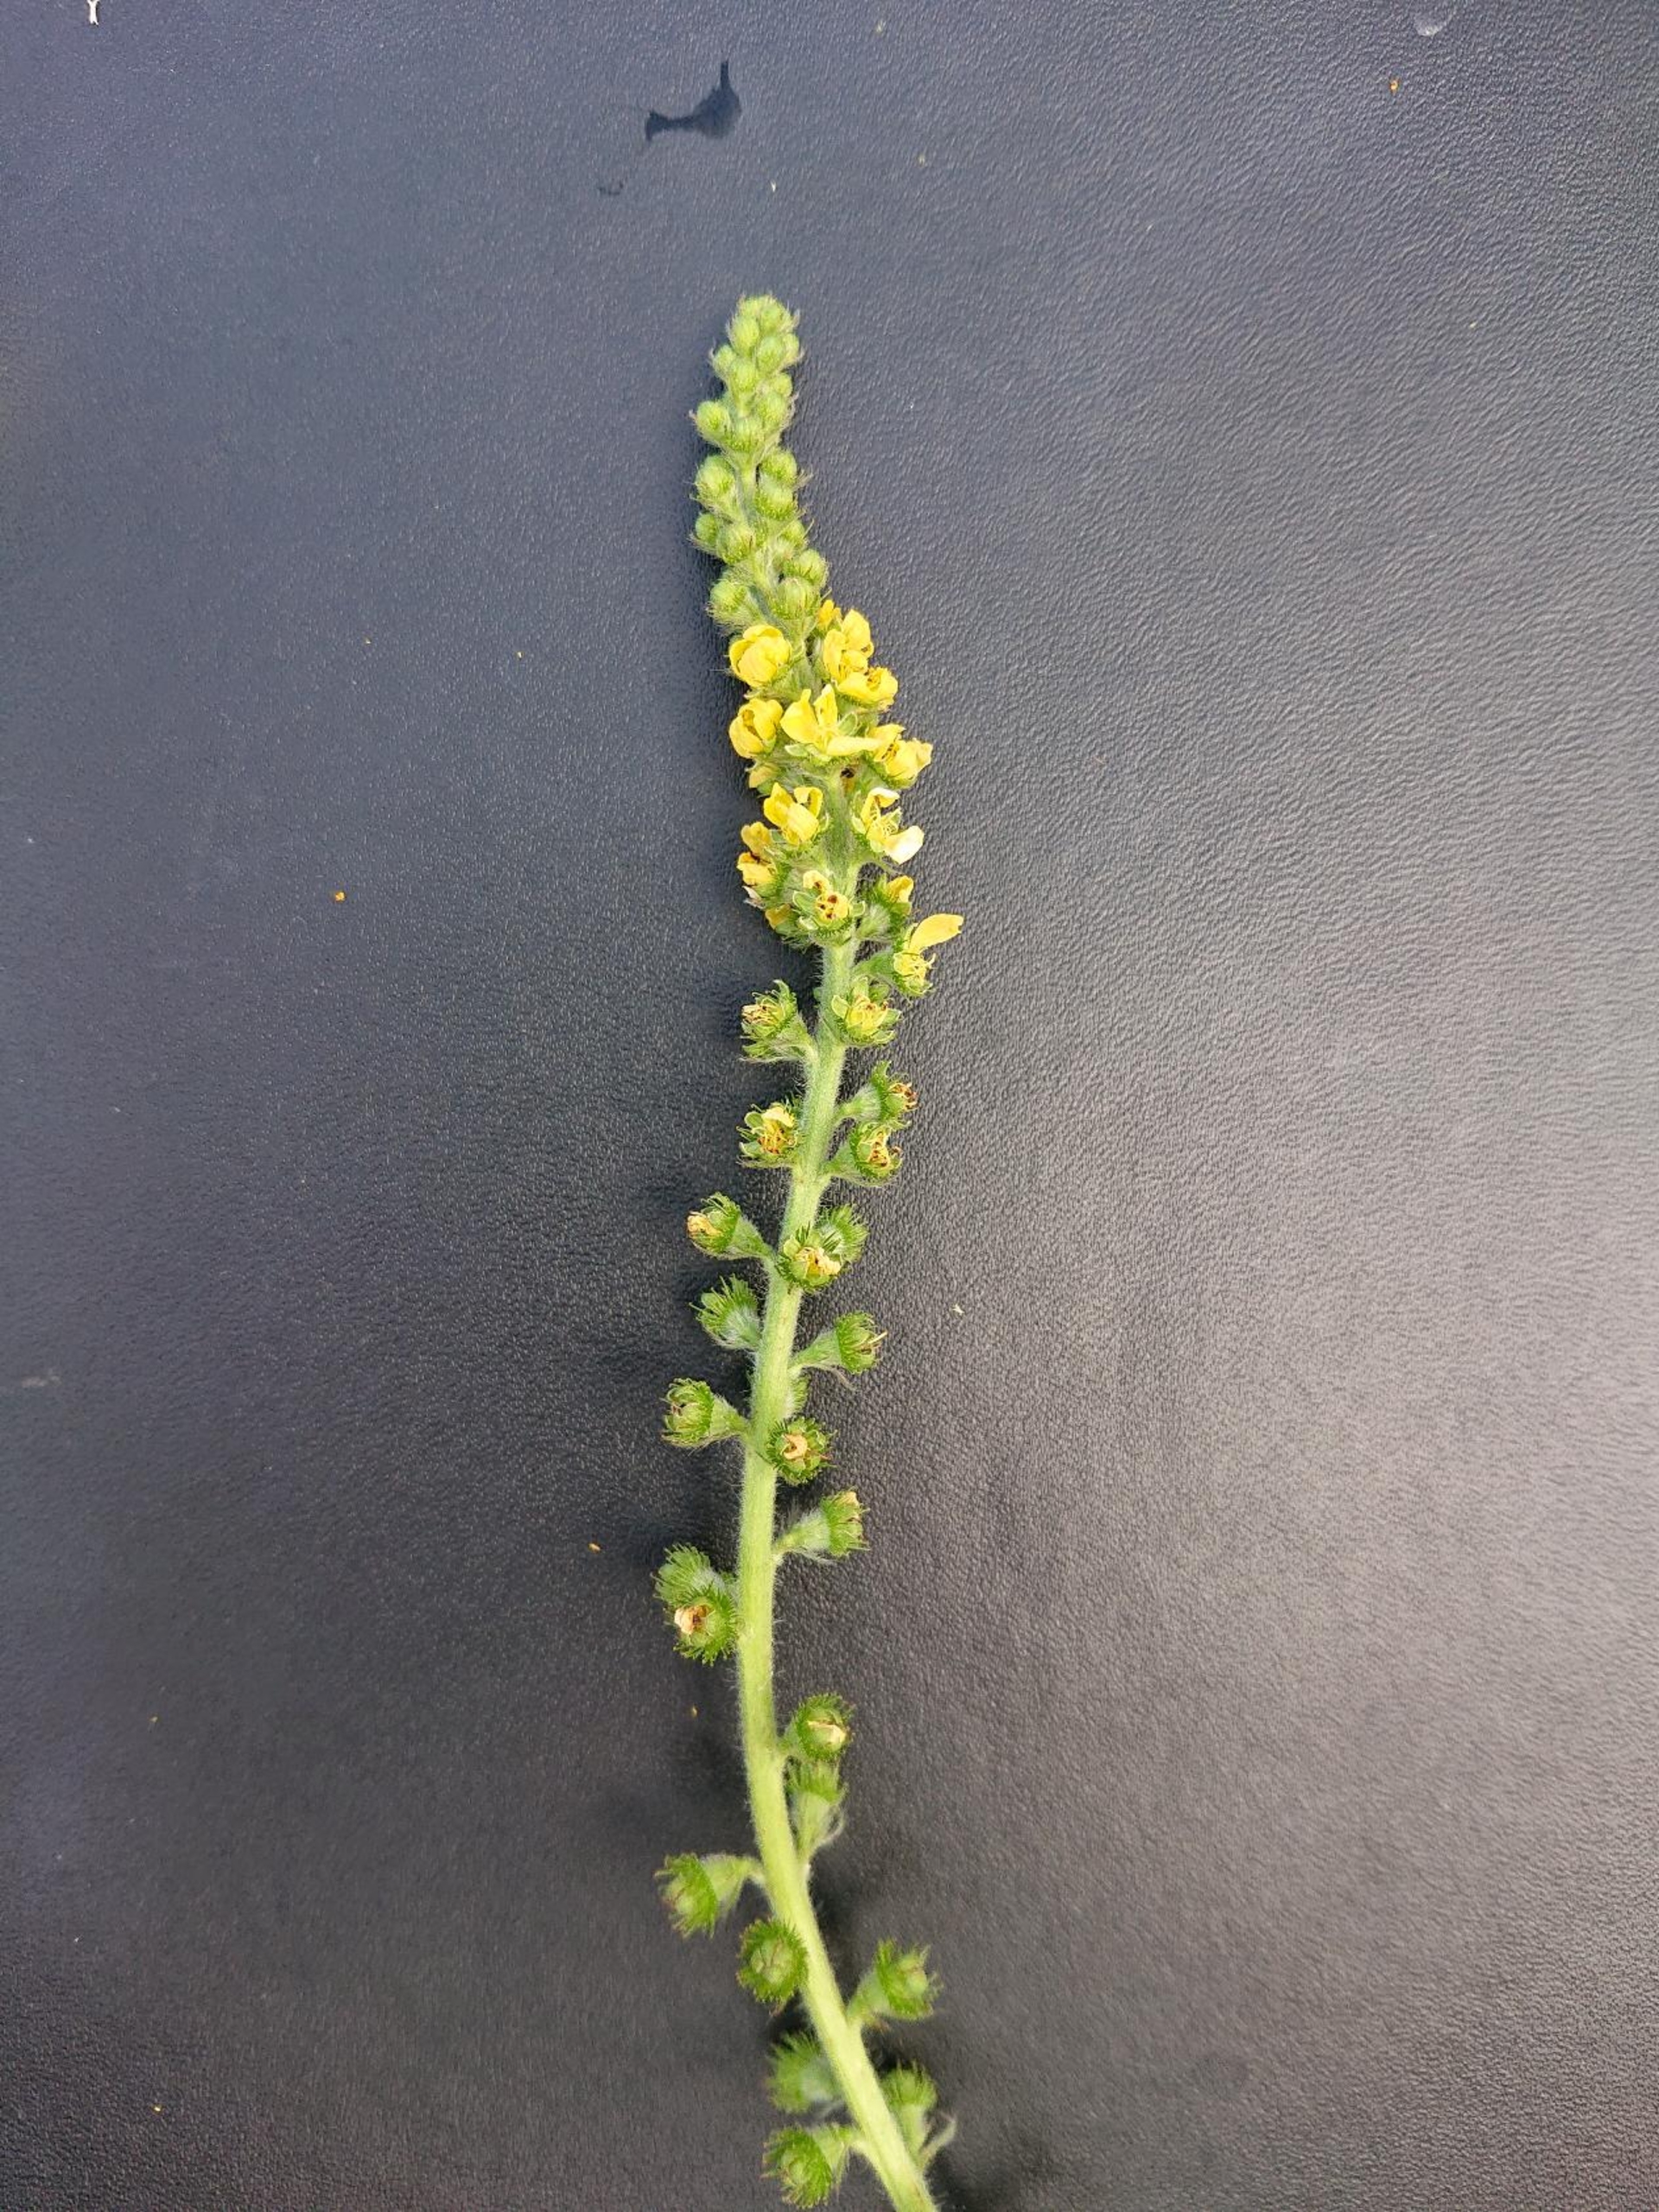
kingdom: Plantae
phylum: Tracheophyta
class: Magnoliopsida
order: Rosales
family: Rosaceae
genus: Agrimonia
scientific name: Agrimonia eupatoria
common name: Almindelig agermåne
